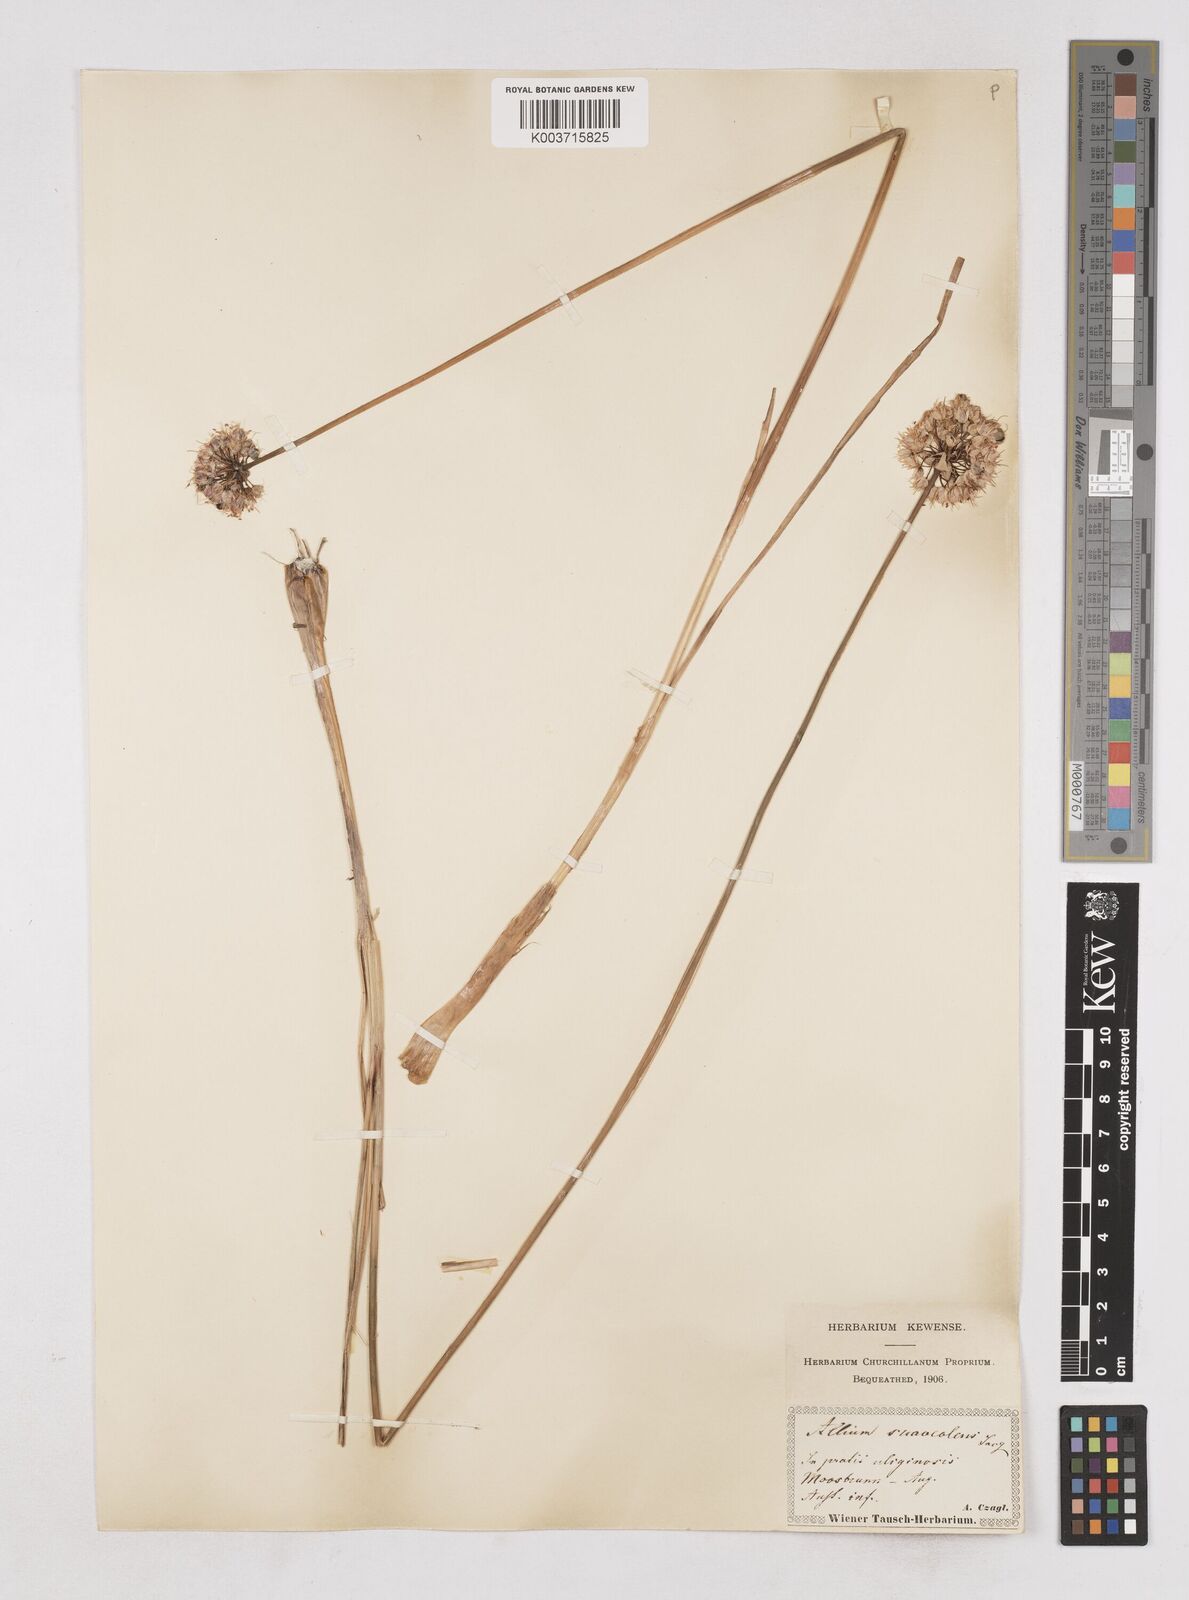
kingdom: Plantae
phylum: Tracheophyta
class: Liliopsida
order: Asparagales
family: Amaryllidaceae
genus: Allium
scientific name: Allium suaveolens
